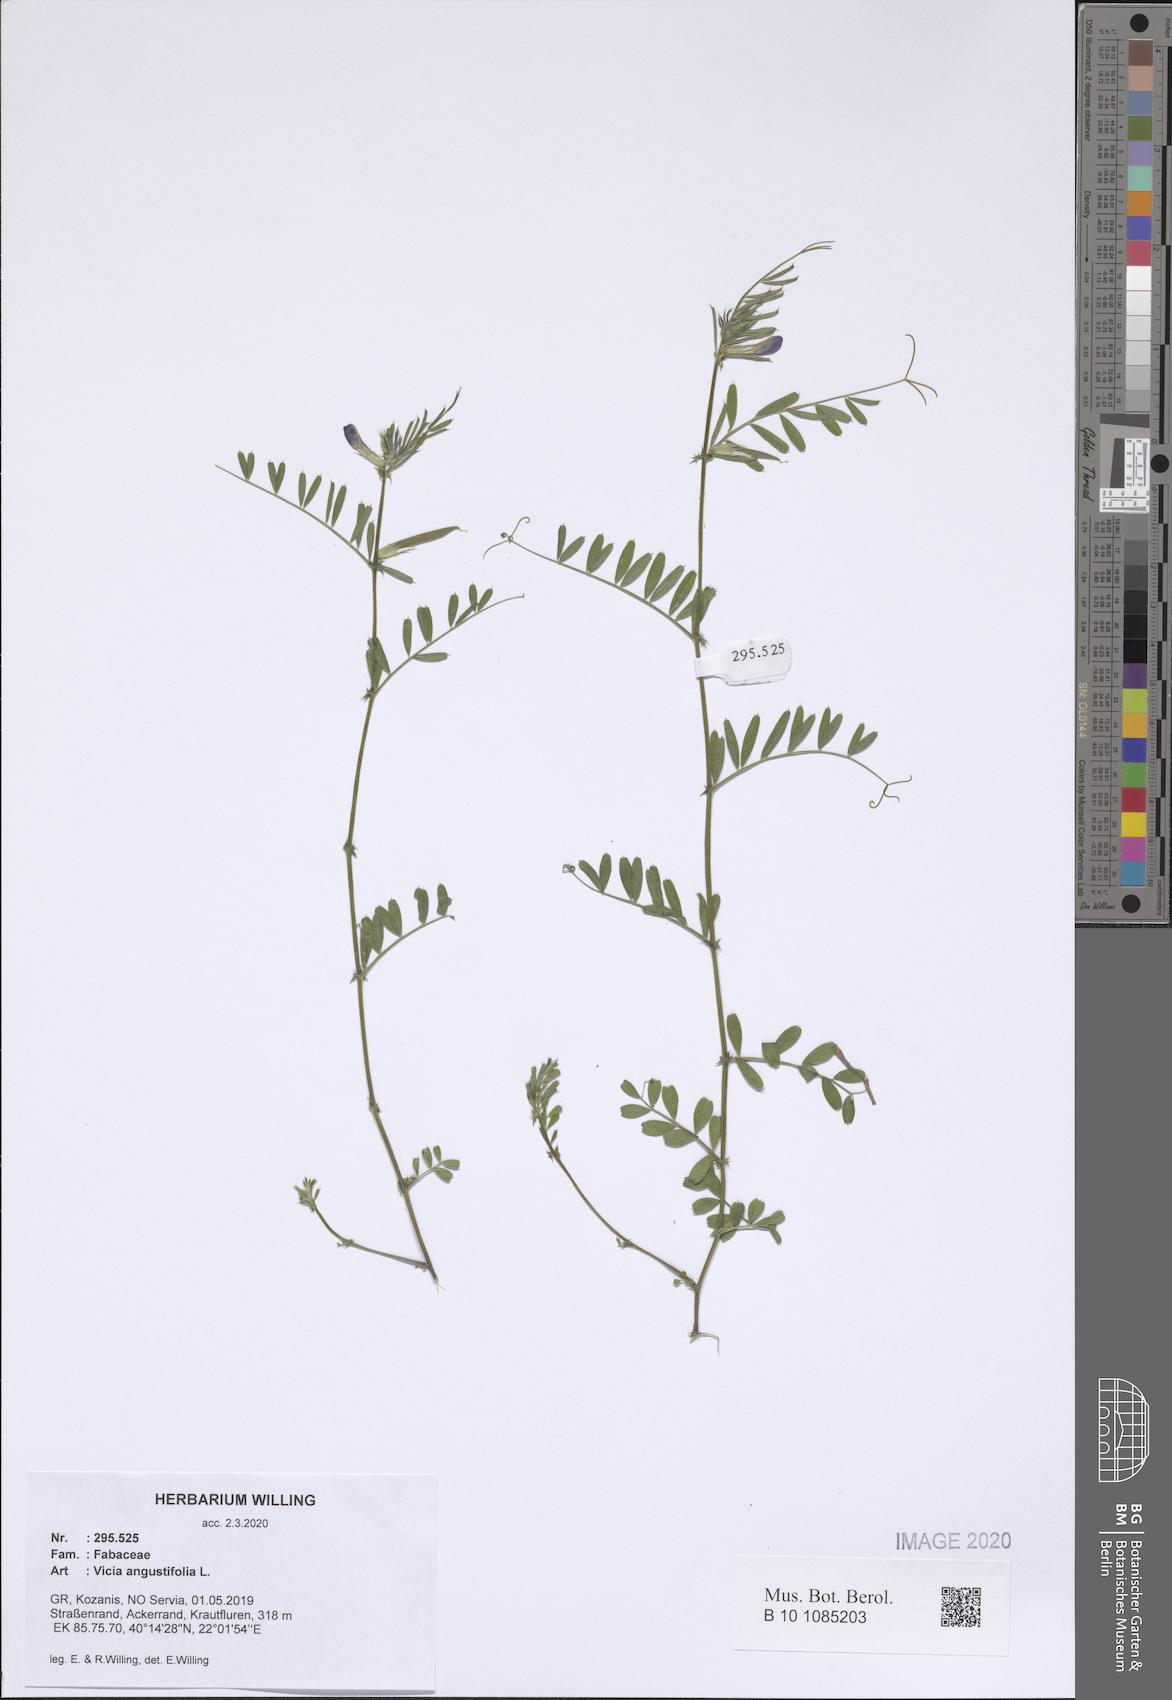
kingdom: Plantae
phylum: Tracheophyta
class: Magnoliopsida
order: Fabales
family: Fabaceae
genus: Vicia
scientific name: Vicia sativa
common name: Garden vetch
